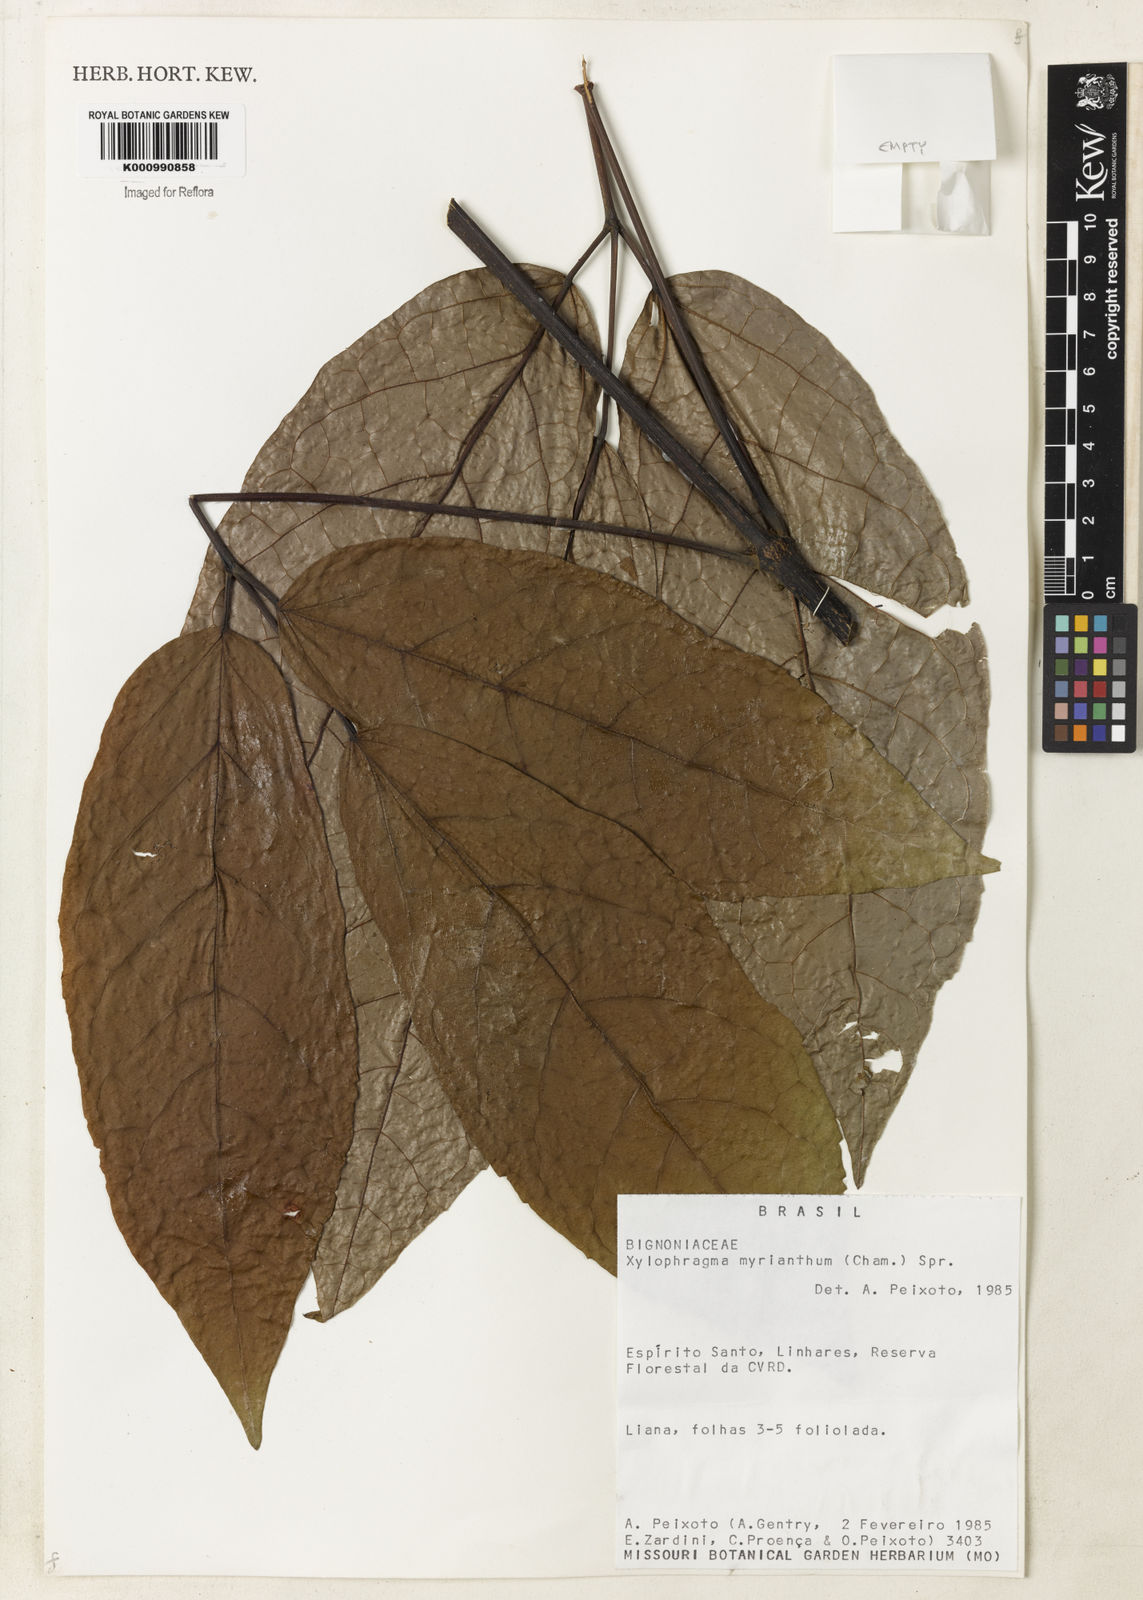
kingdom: Plantae
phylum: Tracheophyta
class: Magnoliopsida
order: Lamiales
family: Bignoniaceae
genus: Xylophragma
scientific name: Xylophragma myrianthum
